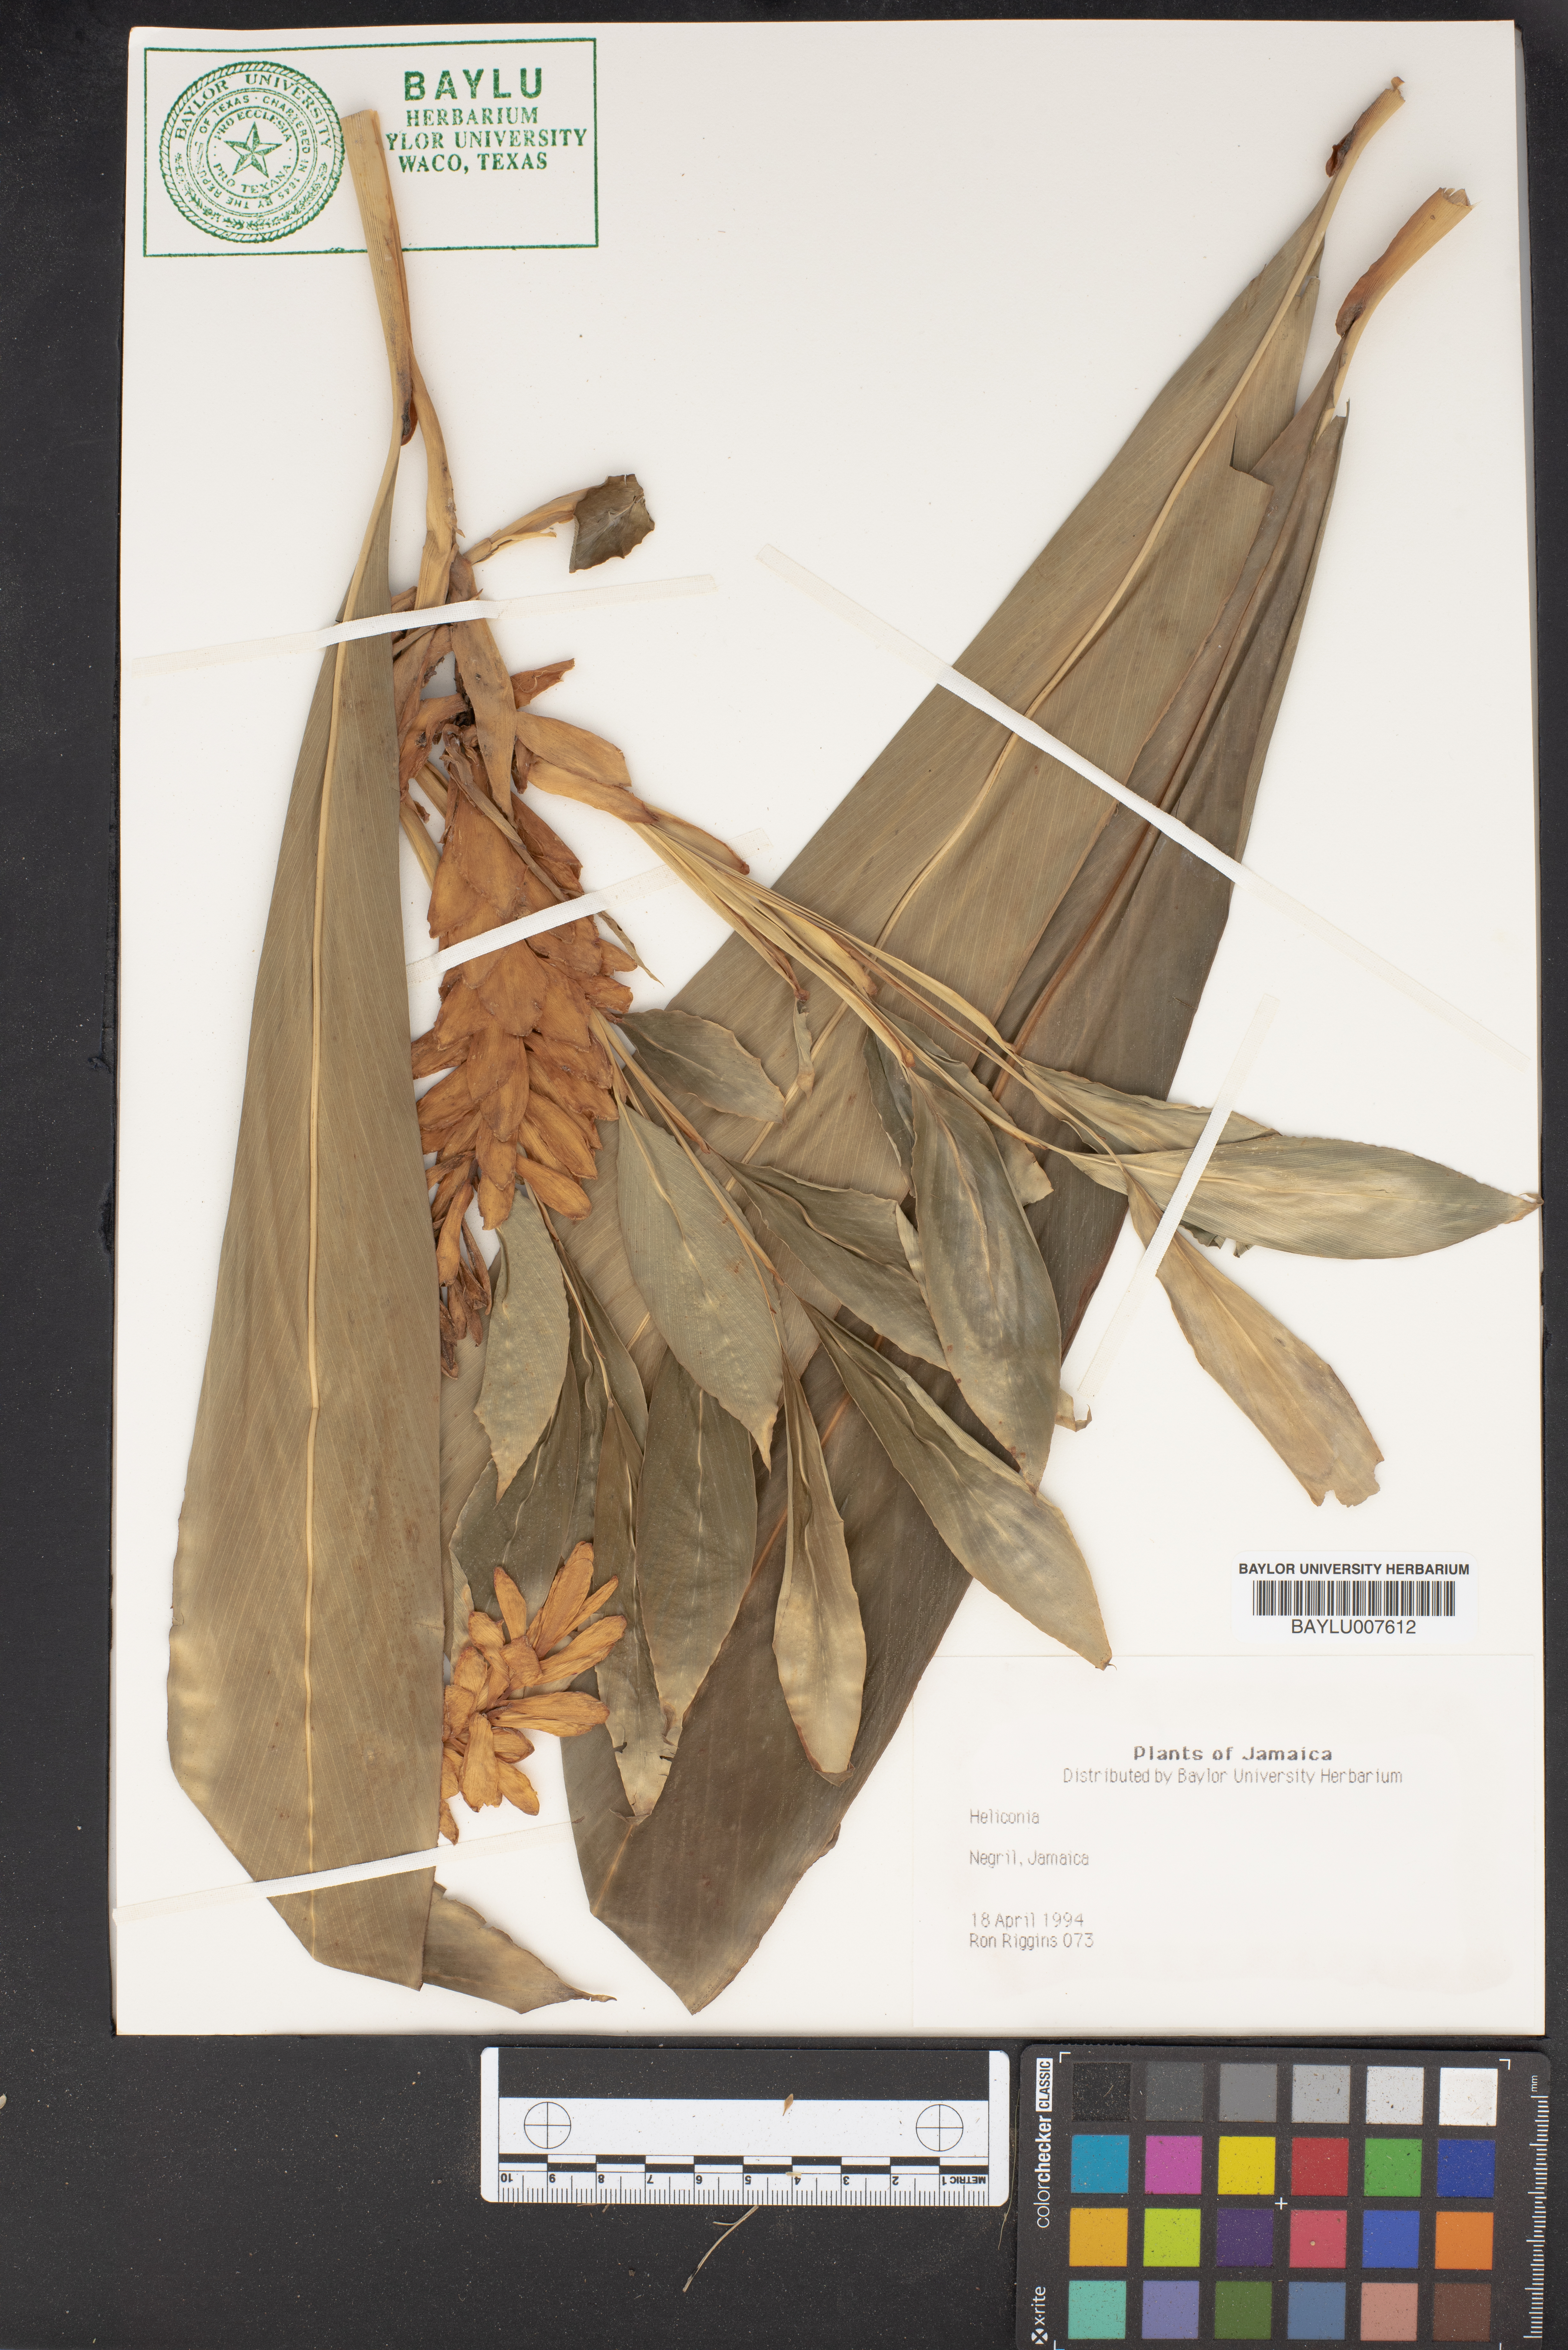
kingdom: Plantae
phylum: Tracheophyta
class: Liliopsida
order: Zingiberales
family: Heliconiaceae
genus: Heliconia
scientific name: Heliconia
